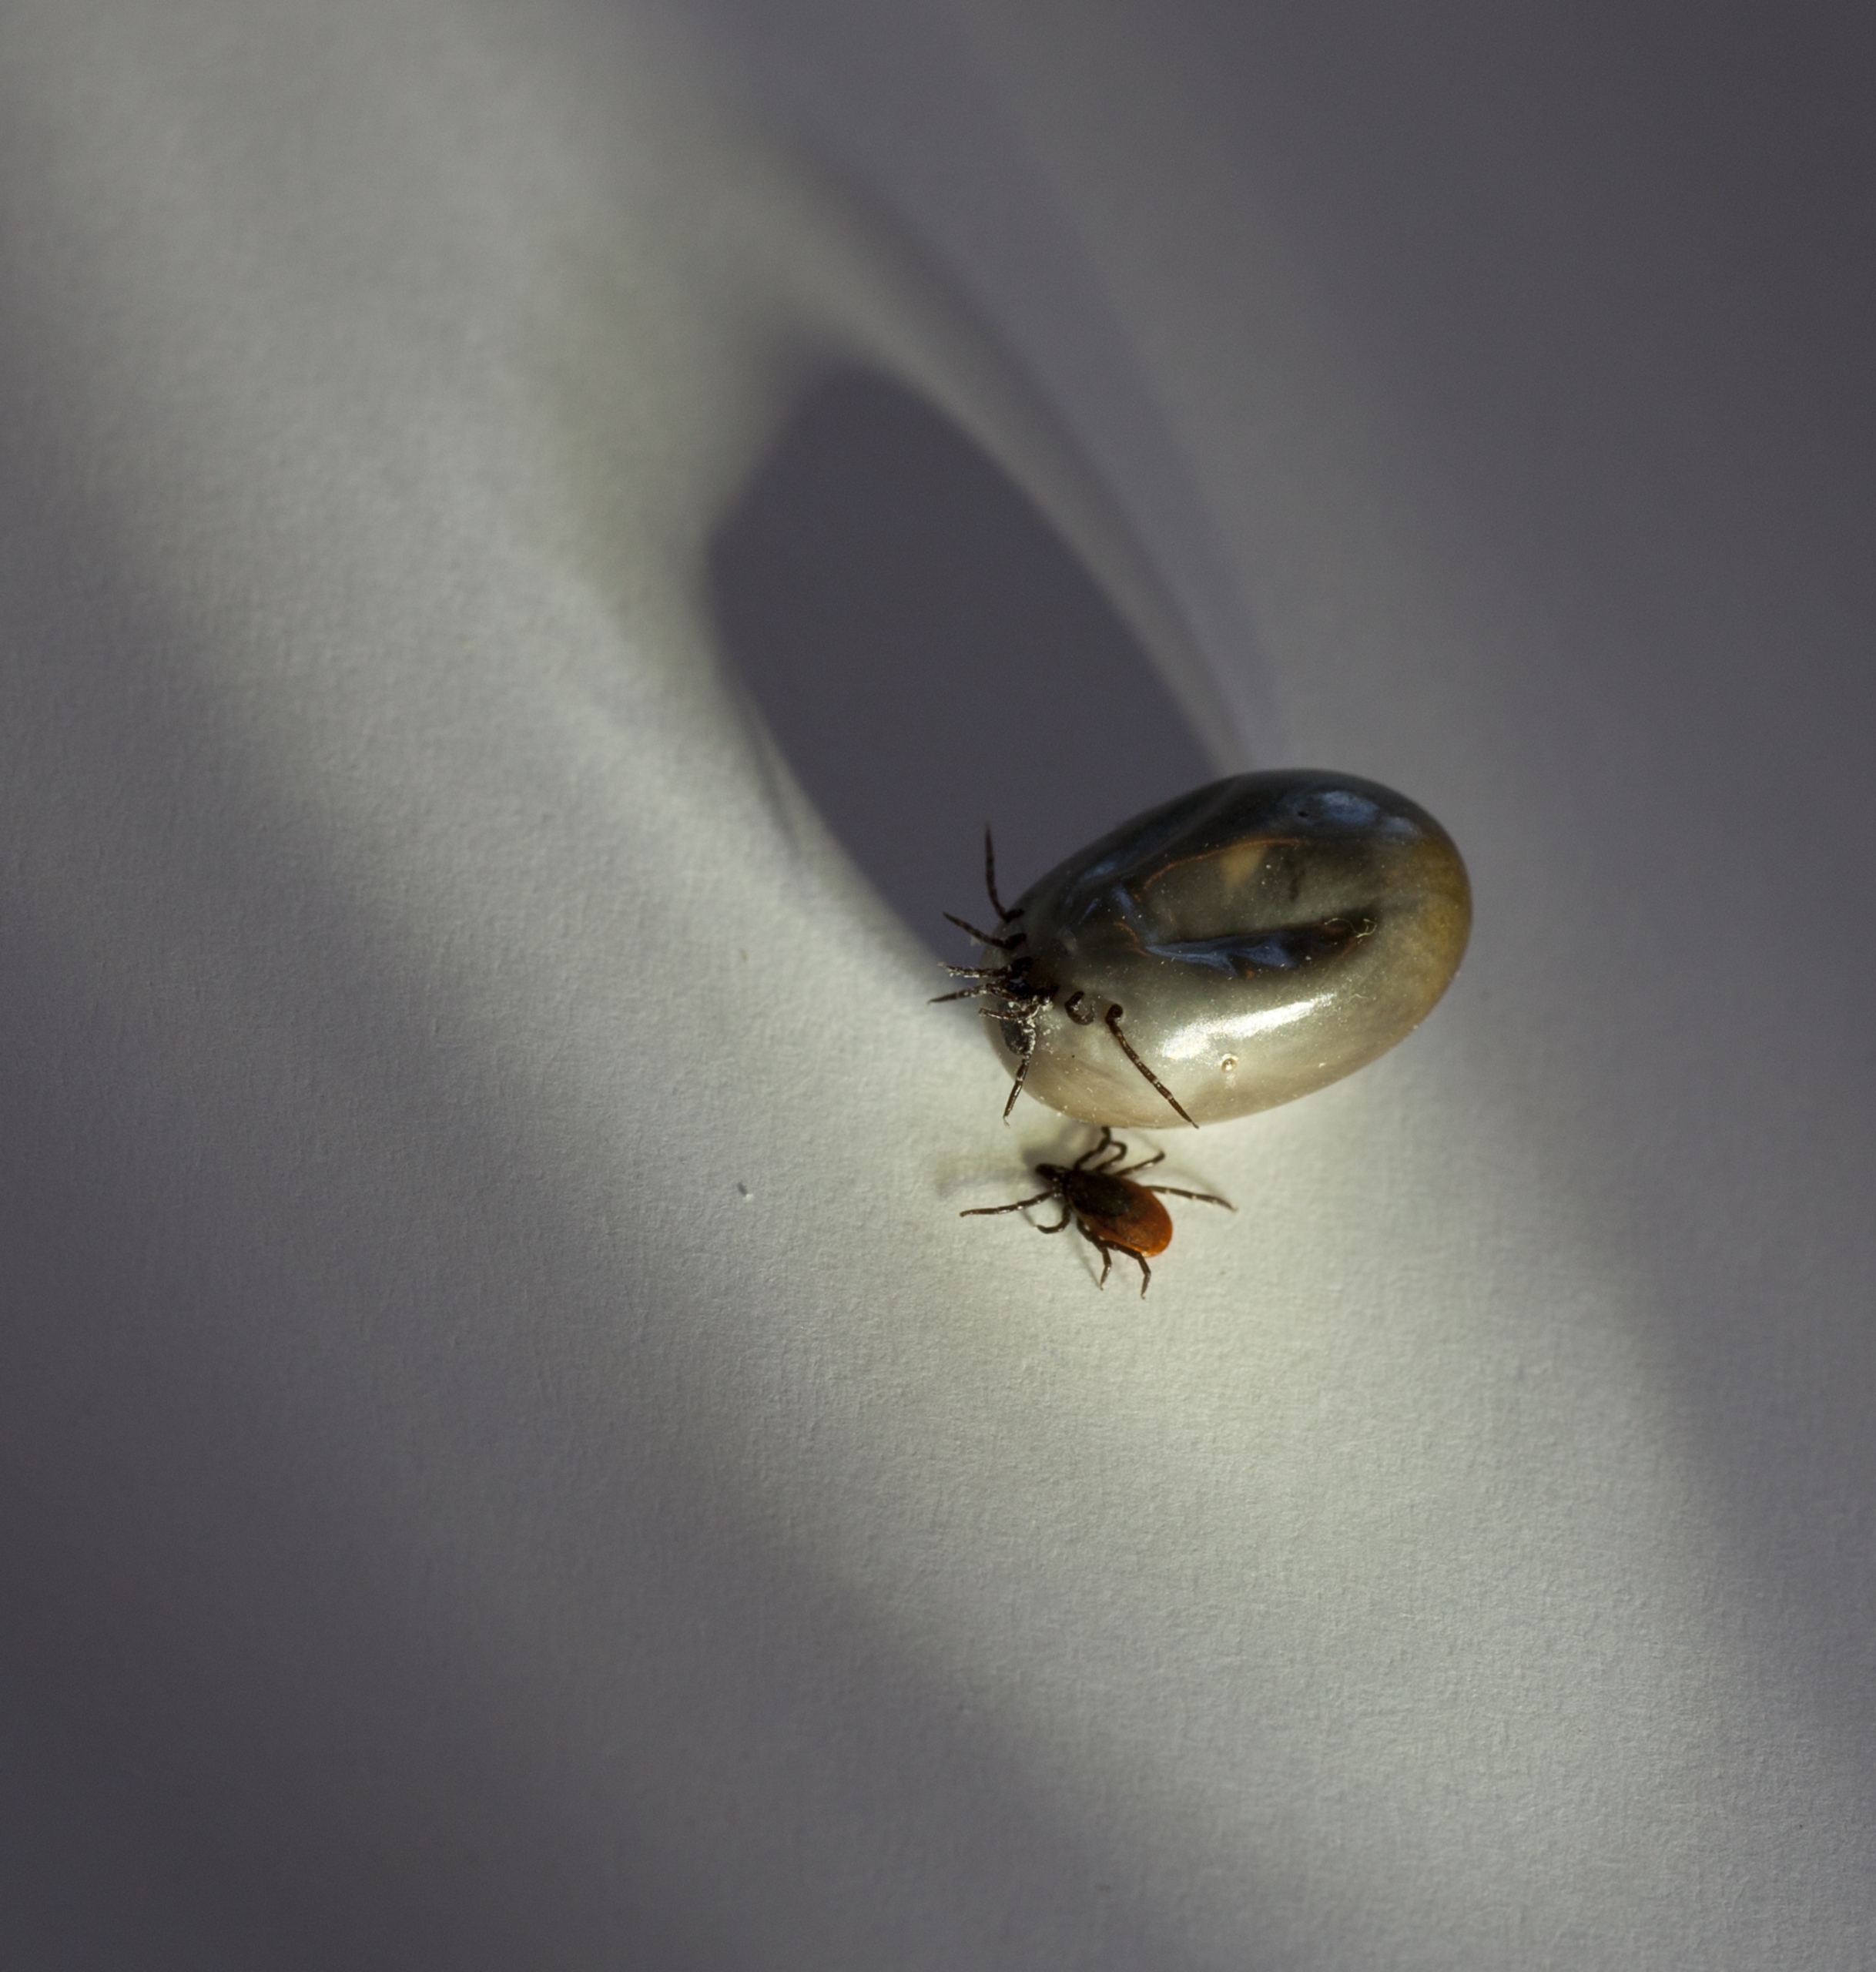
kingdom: Animalia
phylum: Arthropoda
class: Arachnida
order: Ixodida
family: Ixodidae
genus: Ixodes
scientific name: Ixodes ricinus
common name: Skovflåt
